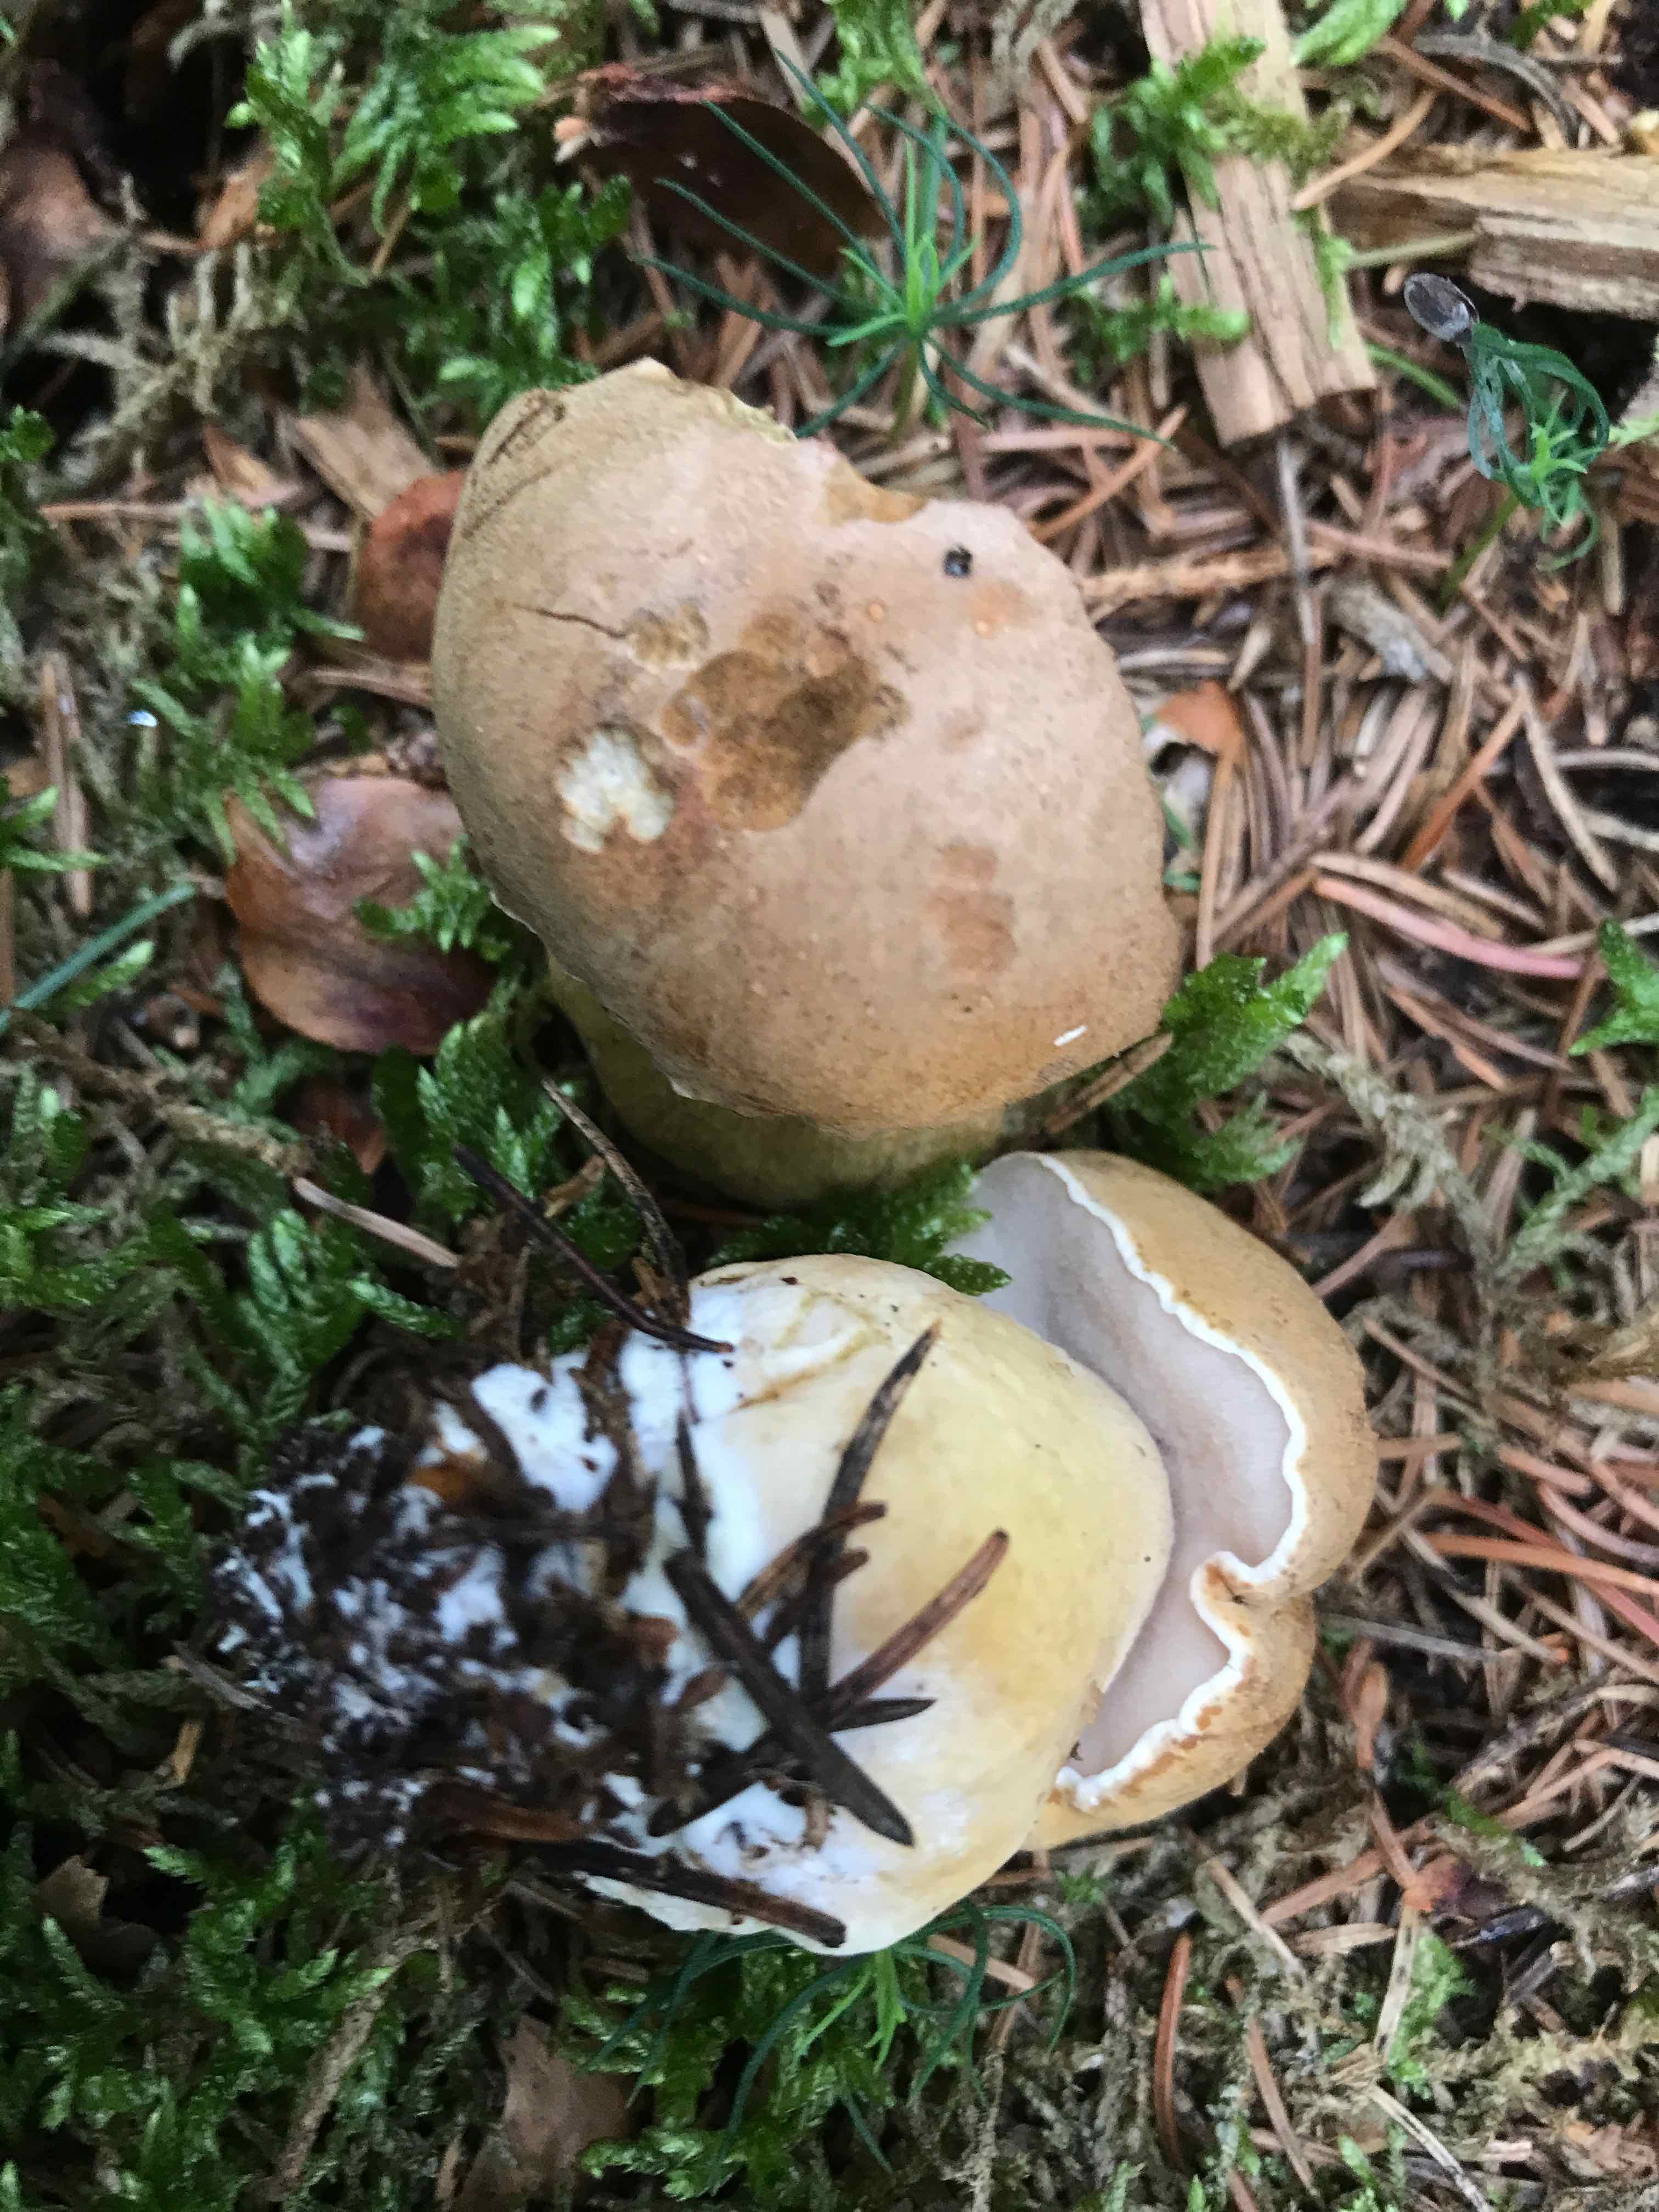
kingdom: Fungi
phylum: Basidiomycota
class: Agaricomycetes
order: Boletales
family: Boletaceae
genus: Tylopilus
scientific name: Tylopilus felleus
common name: galderørhat
